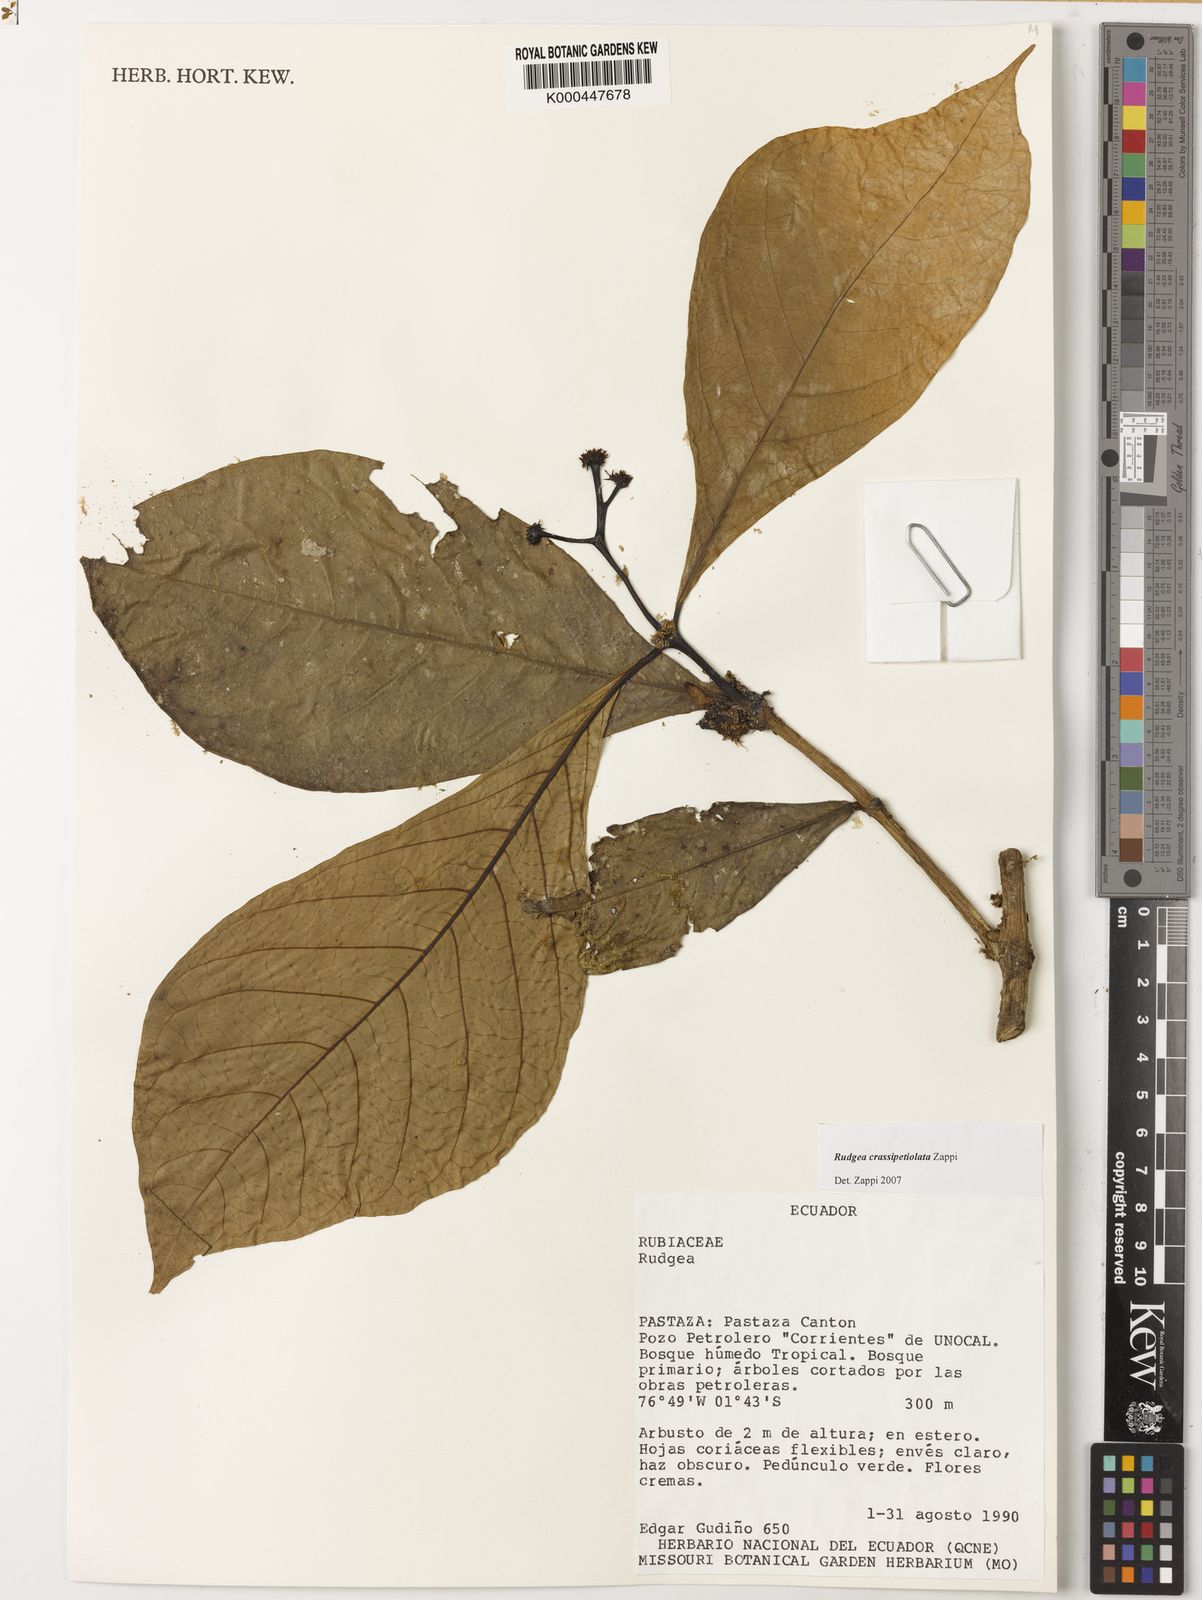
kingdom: Plantae
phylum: Tracheophyta
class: Magnoliopsida
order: Gentianales
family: Rubiaceae
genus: Rudgea
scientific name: Rudgea crassipetiolata
